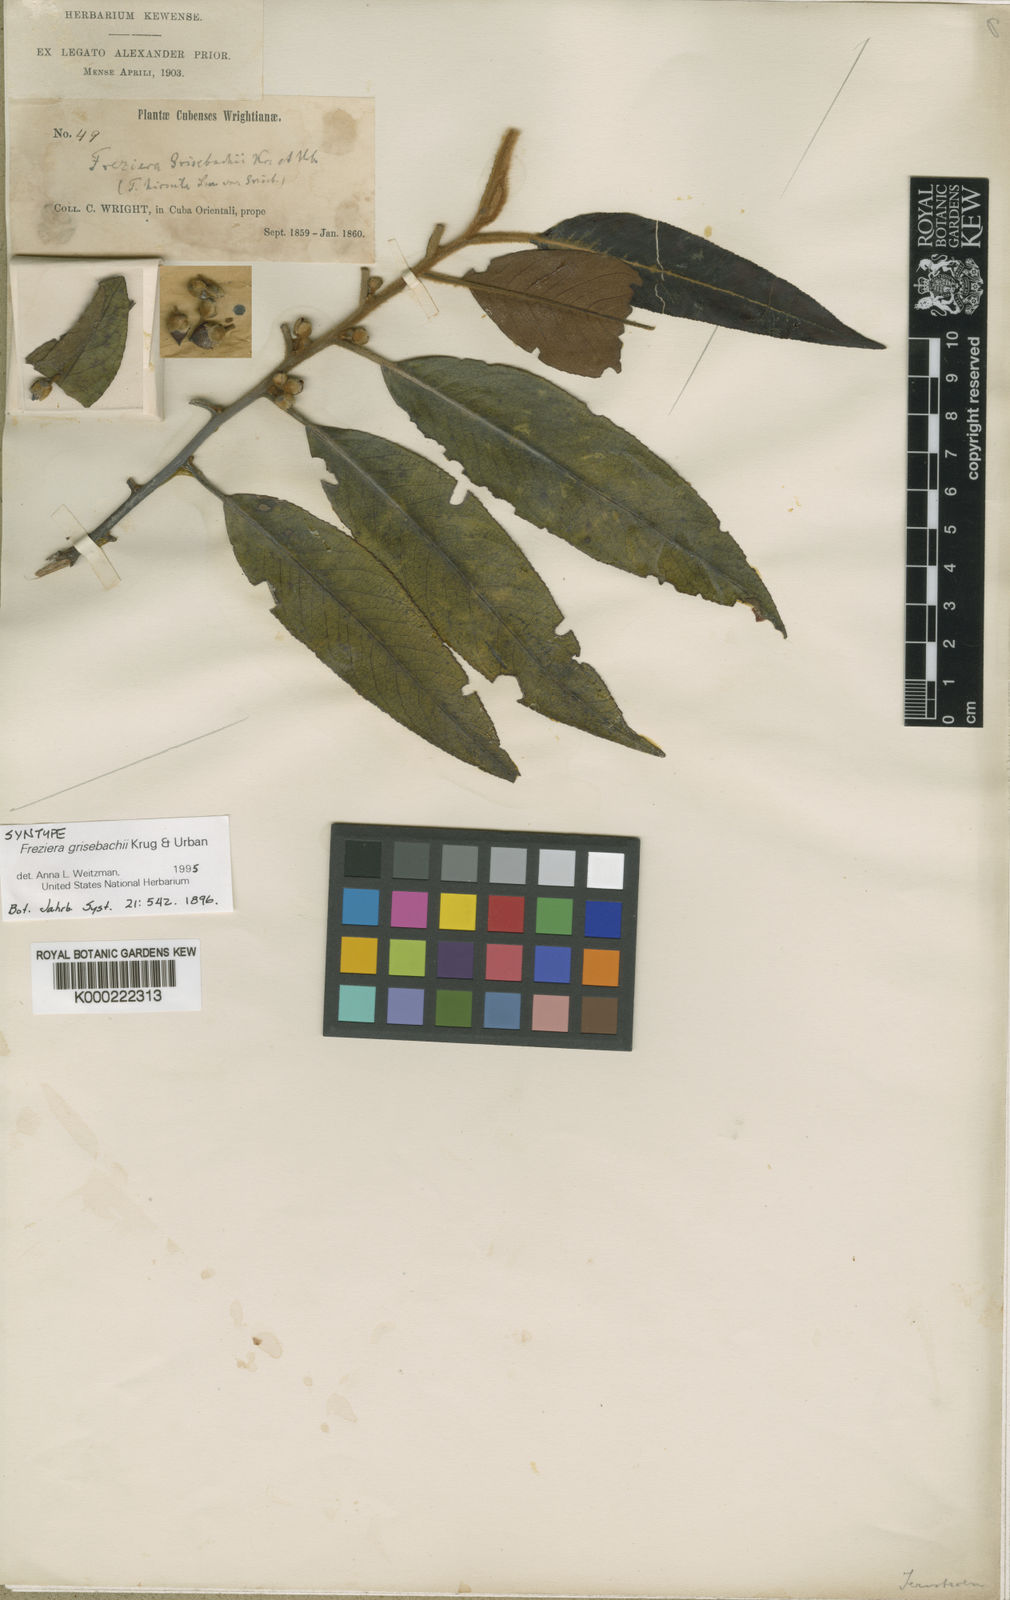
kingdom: Plantae
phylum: Tracheophyta
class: Magnoliopsida
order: Ericales
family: Pentaphylacaceae
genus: Freziera
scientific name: Freziera grisebachii
